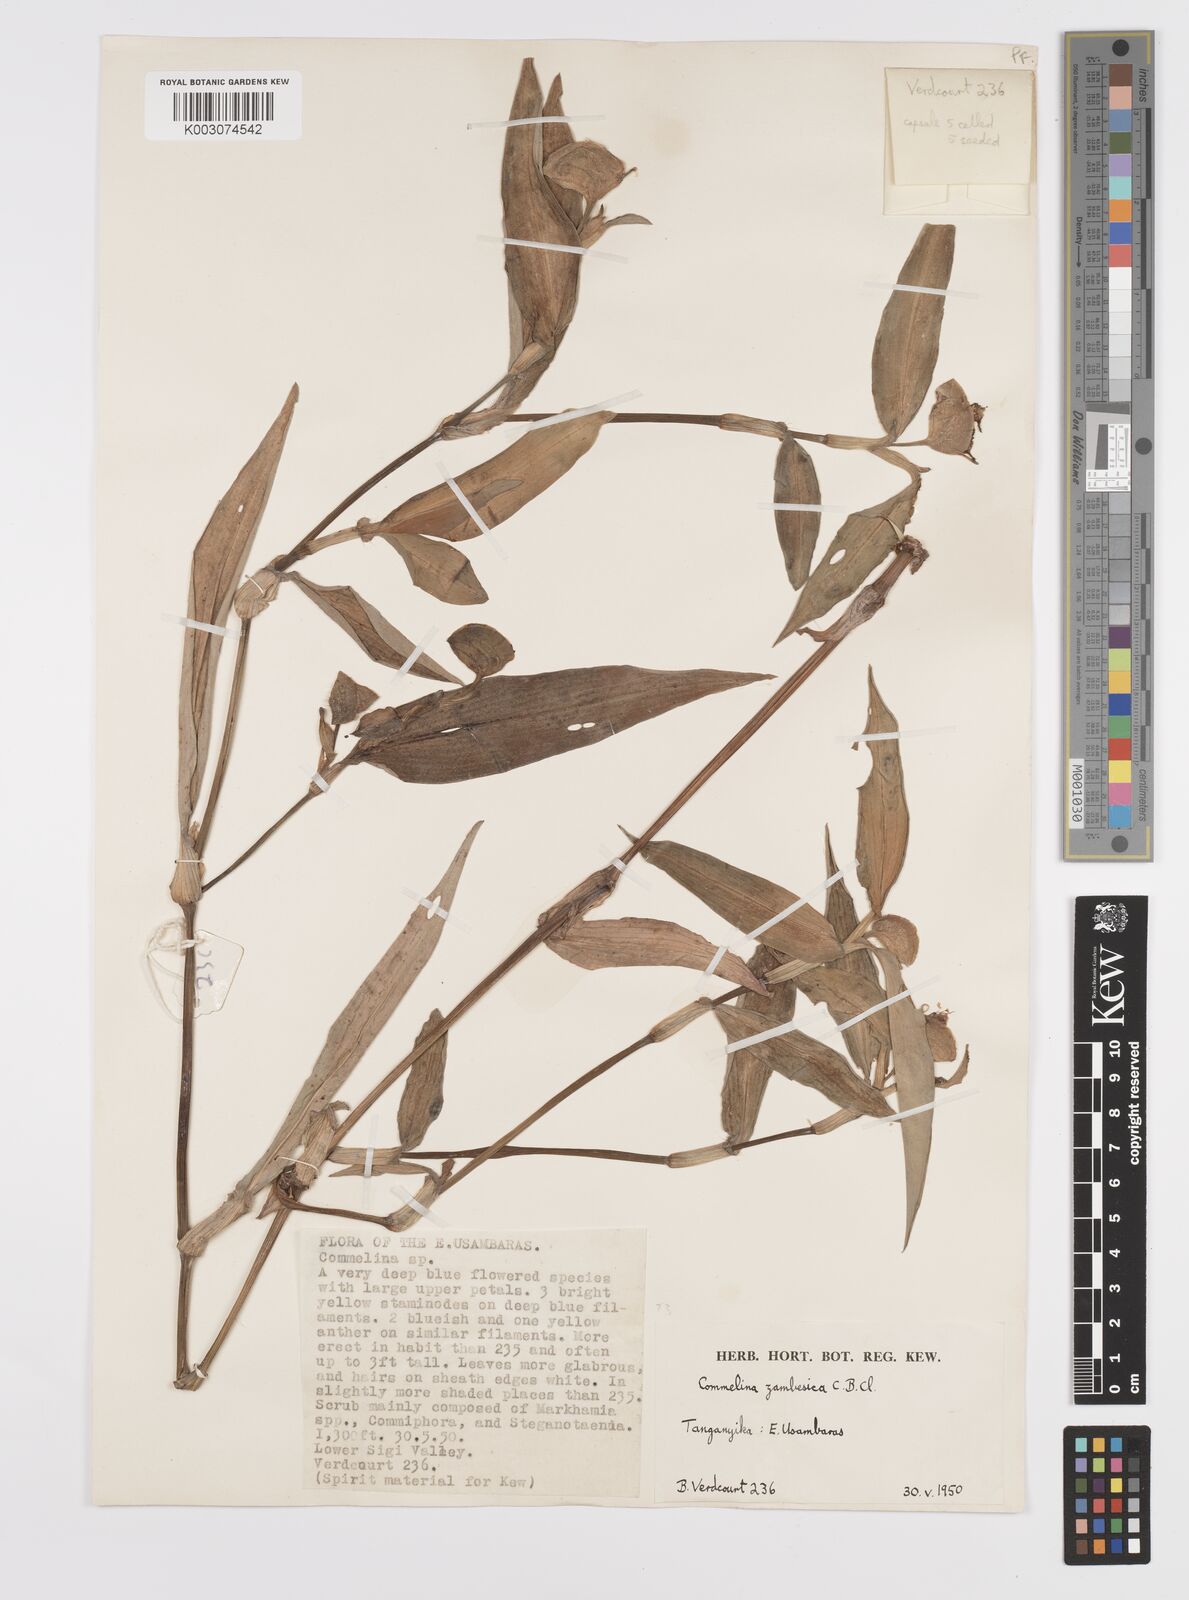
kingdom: Plantae
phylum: Tracheophyta
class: Liliopsida
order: Commelinales
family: Commelinaceae
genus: Commelina
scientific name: Commelina zambesica
